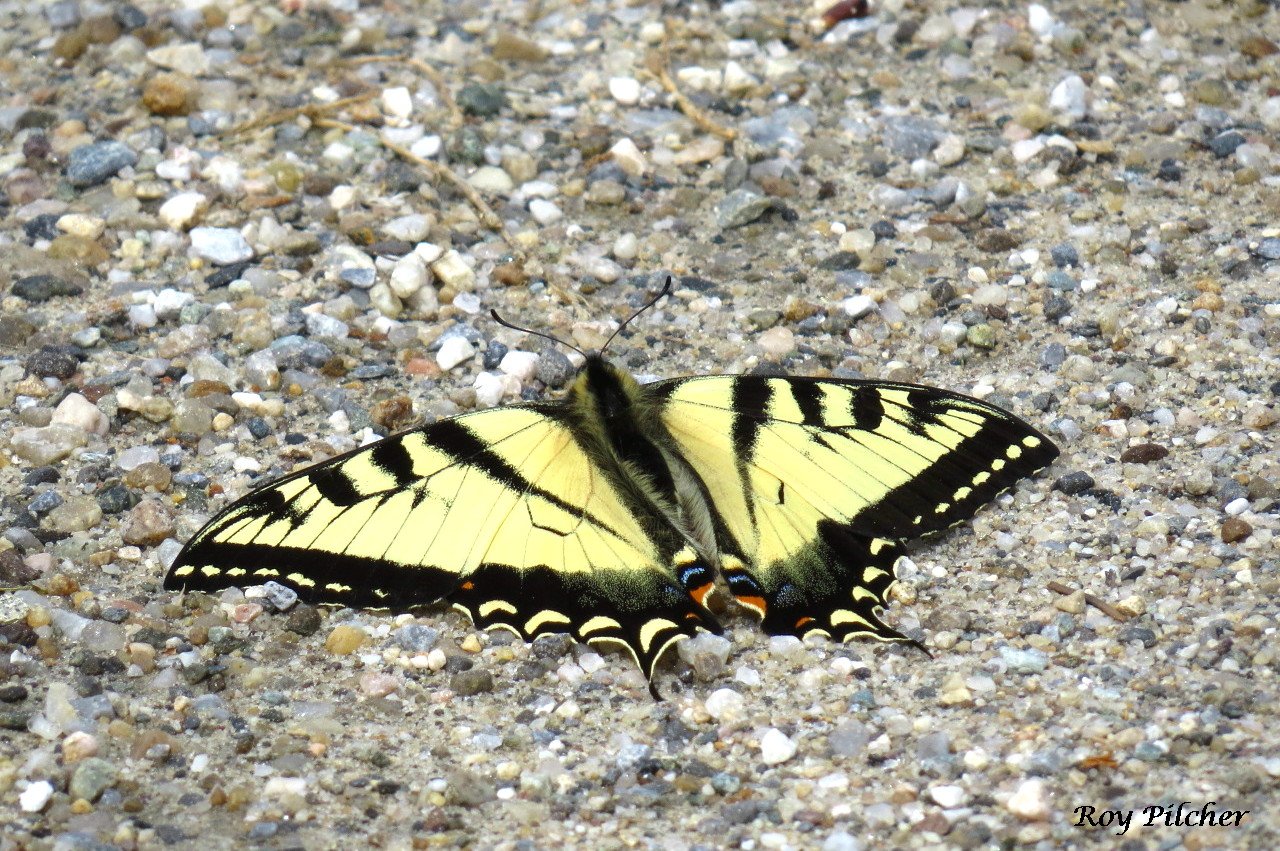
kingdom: Animalia
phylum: Arthropoda
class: Insecta
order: Lepidoptera
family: Papilionidae
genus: Pterourus
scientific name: Pterourus canadensis
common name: Canadian Tiger Swallowtail
